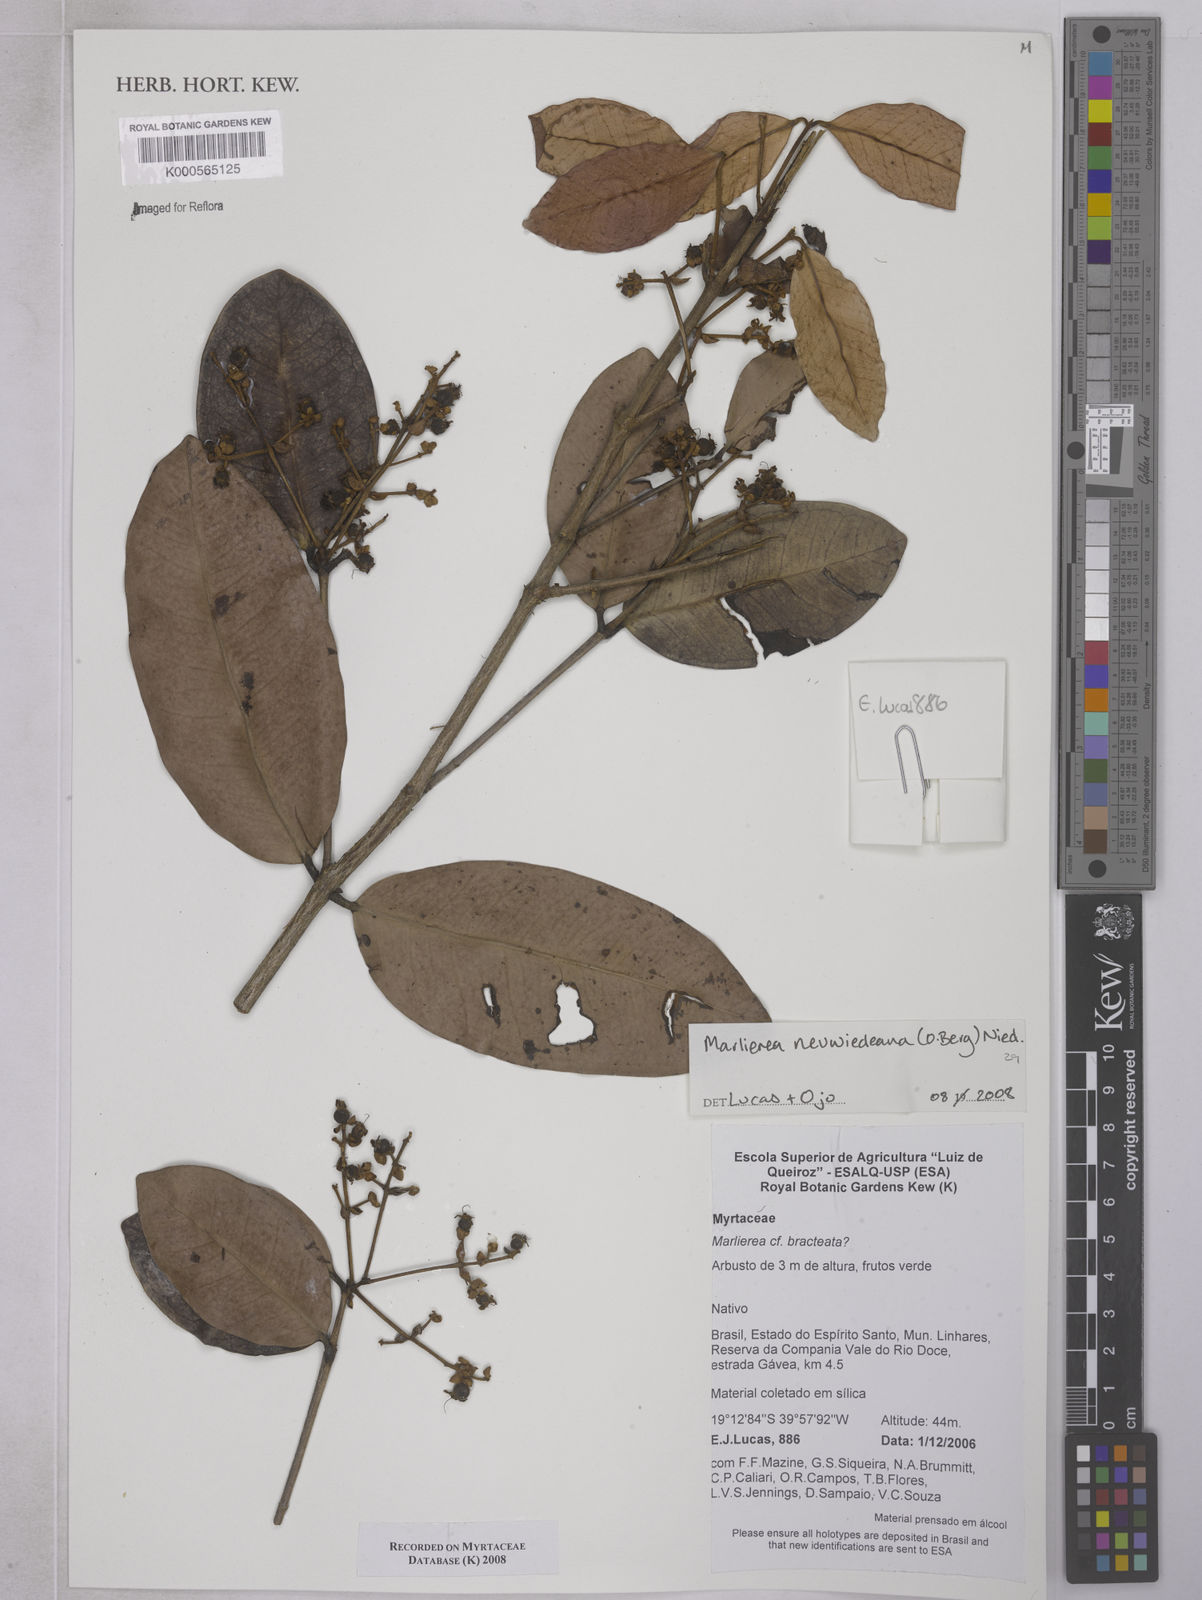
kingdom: Plantae
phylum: Tracheophyta
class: Magnoliopsida
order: Myrtales
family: Myrtaceae
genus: Myrcia
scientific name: Myrcia neuwiedeana
